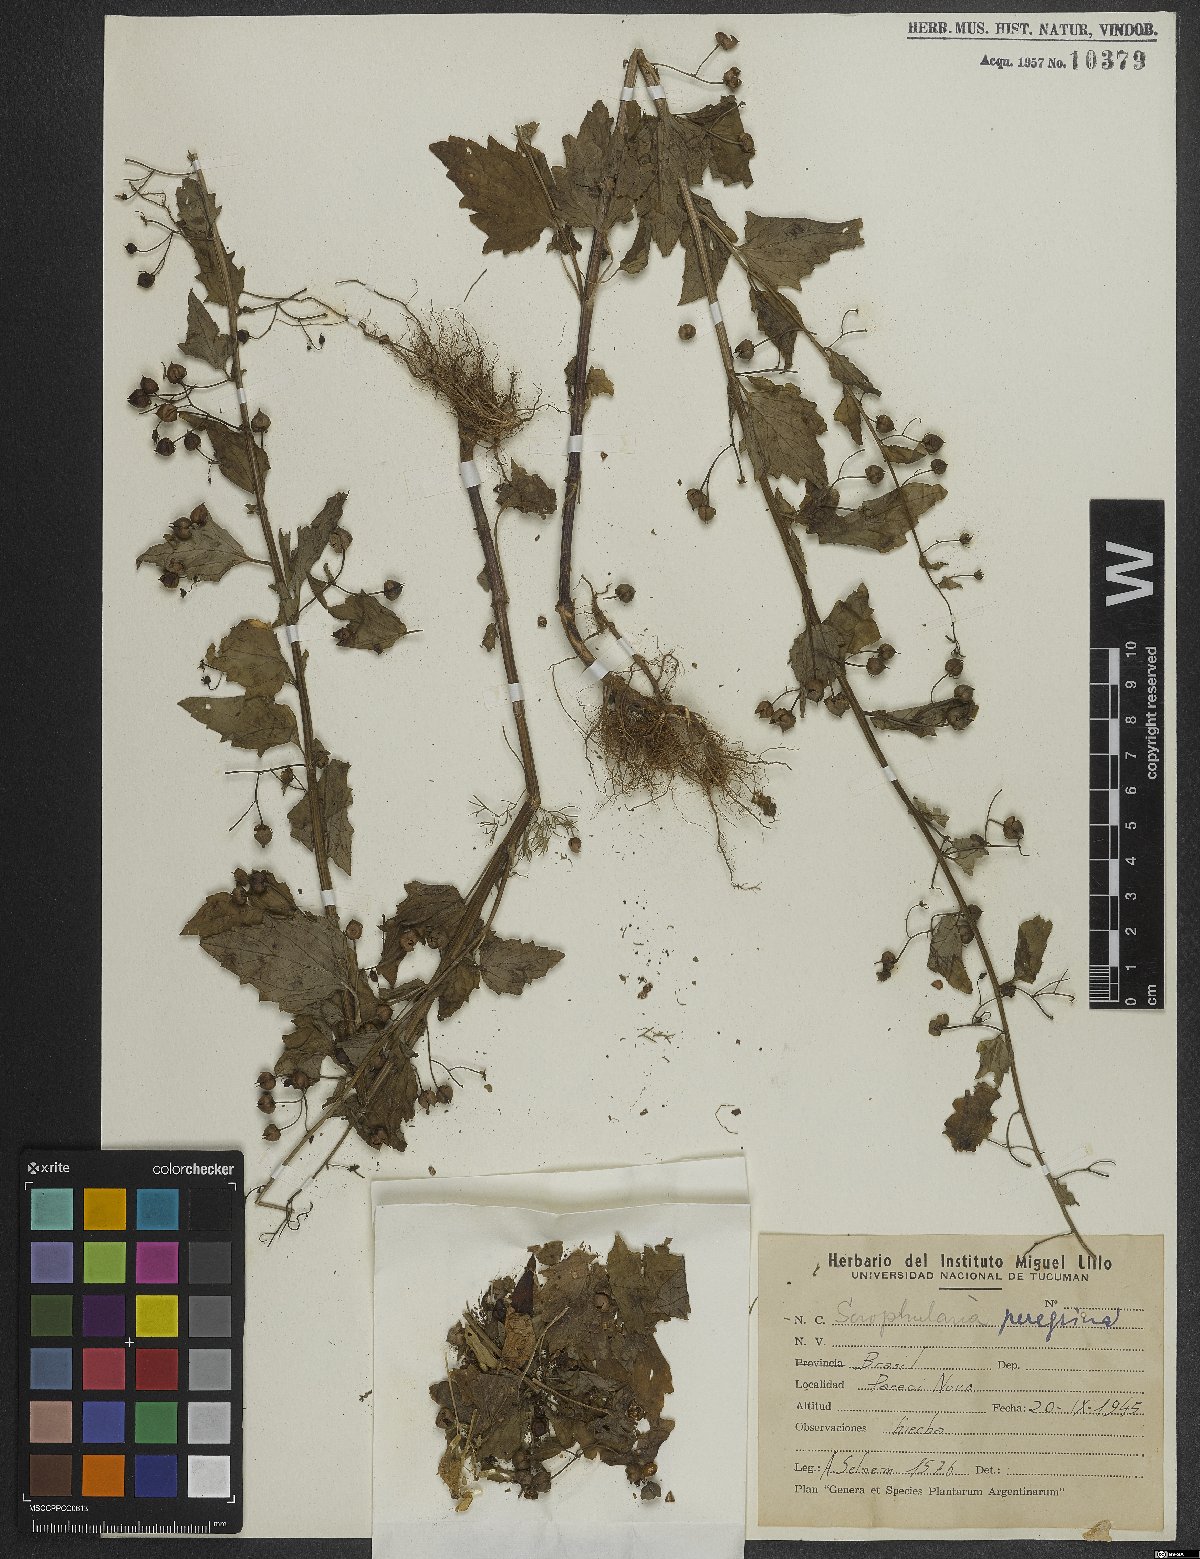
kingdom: Plantae
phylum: Tracheophyta
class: Magnoliopsida
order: Lamiales
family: Scrophulariaceae
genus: Scrophularia
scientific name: Scrophularia peregrina
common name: Mediterranean figwort
